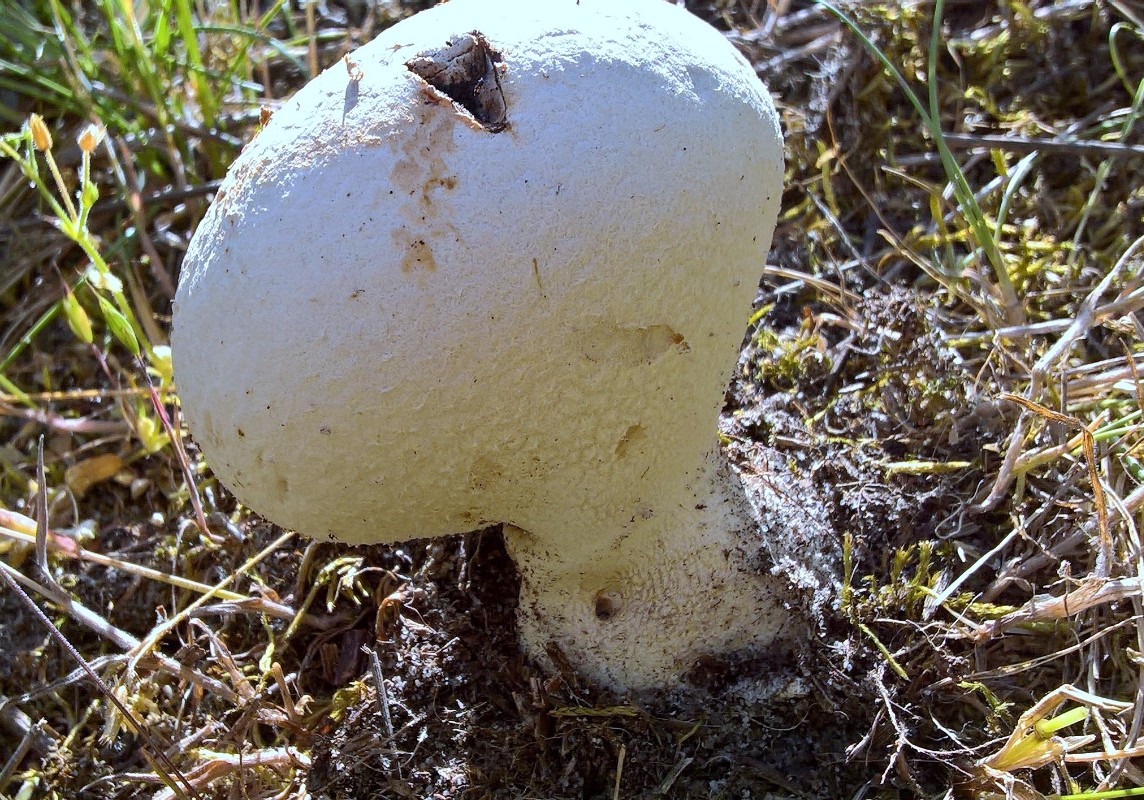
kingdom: Fungi
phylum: Basidiomycota
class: Agaricomycetes
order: Agaricales
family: Lycoperdaceae
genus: Bovistella
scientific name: Bovistella utriformis
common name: skællet støvbold
